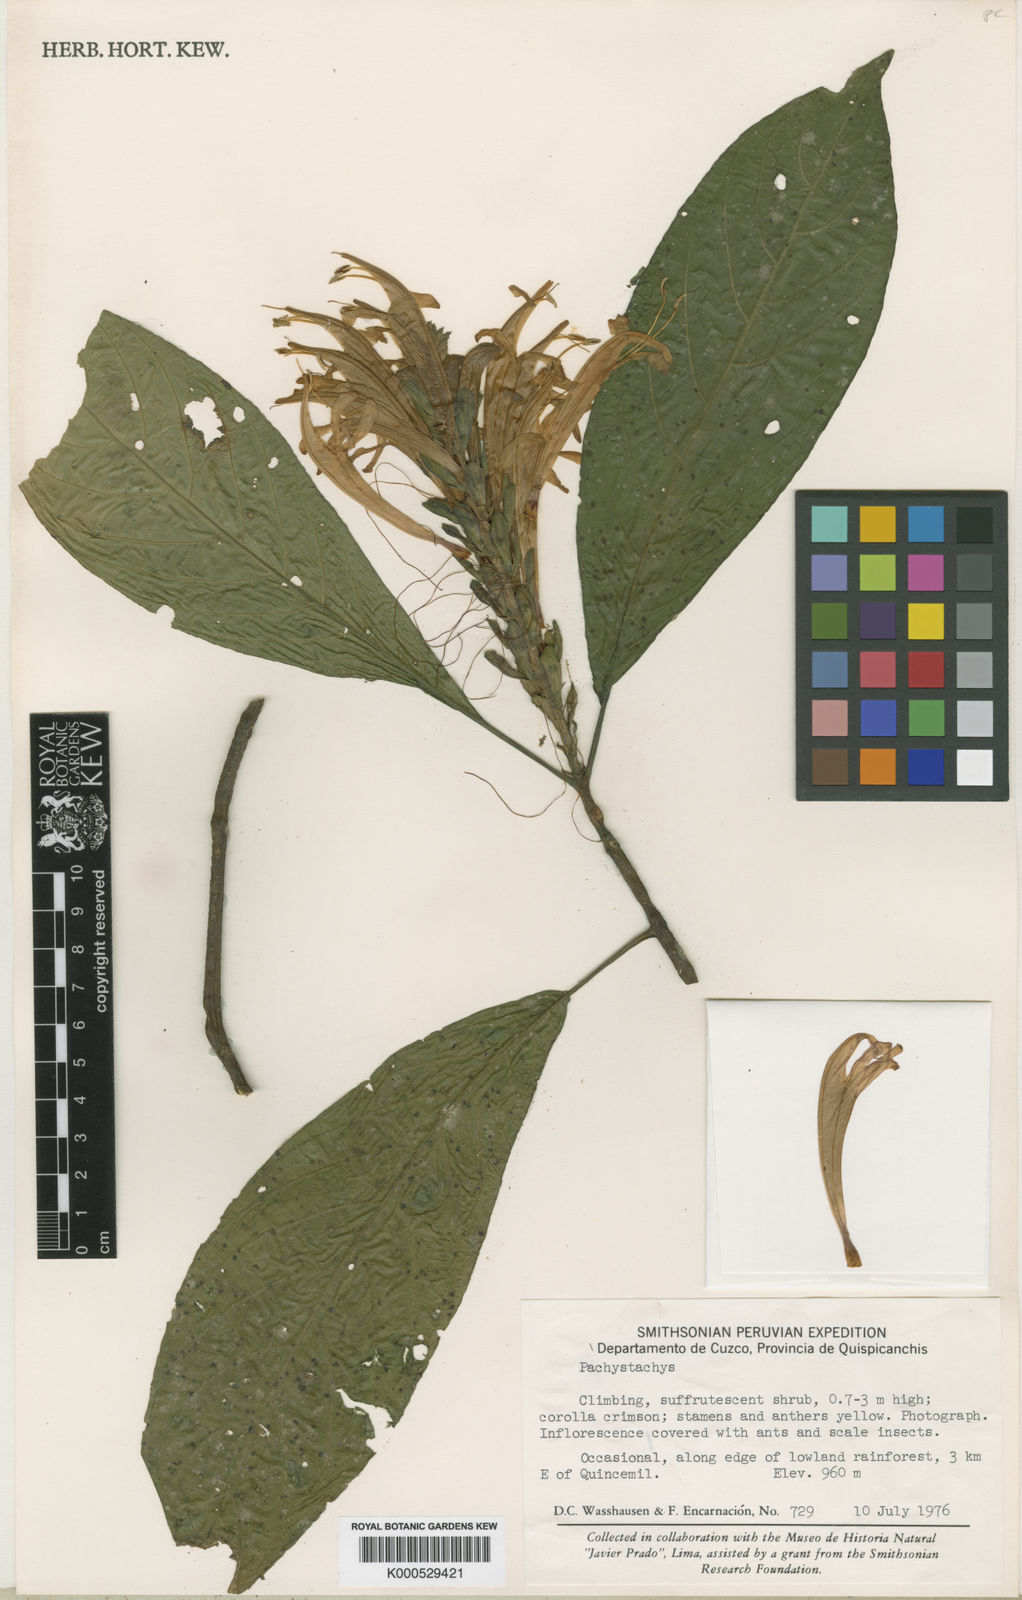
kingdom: Plantae
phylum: Tracheophyta
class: Magnoliopsida
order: Lamiales
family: Acanthaceae
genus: Pachystachys
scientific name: Pachystachys ossolae
